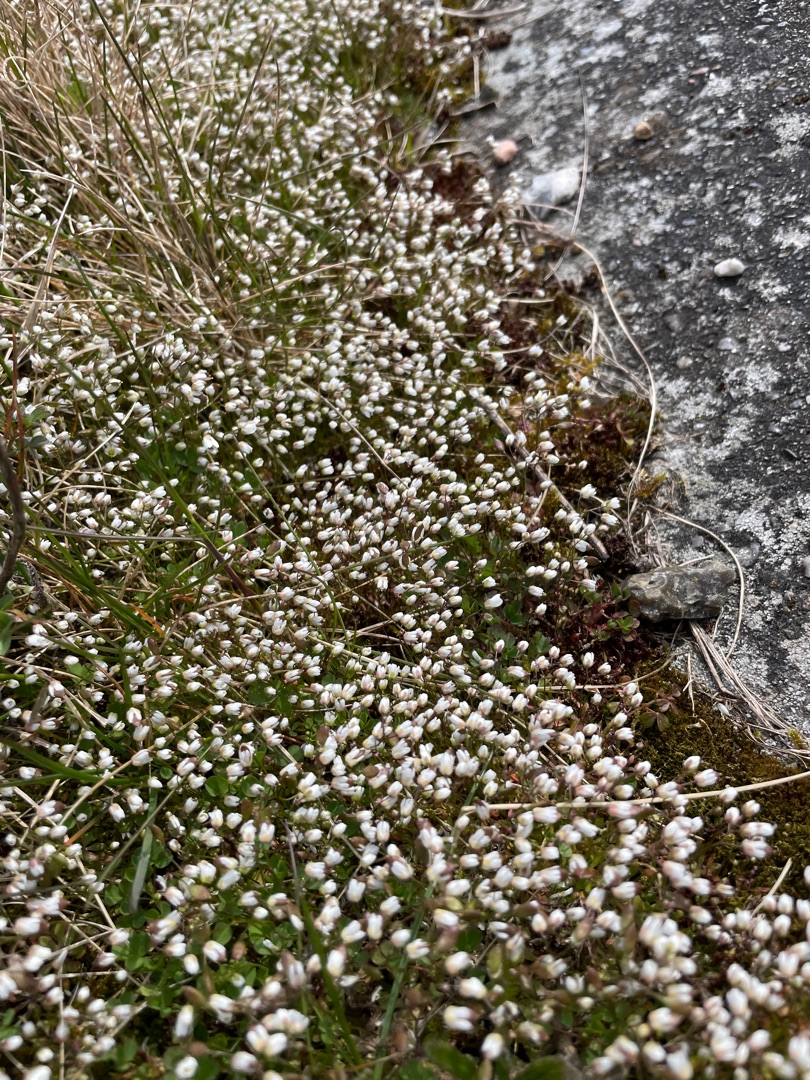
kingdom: Plantae
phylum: Tracheophyta
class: Magnoliopsida
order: Brassicales
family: Brassicaceae
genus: Draba
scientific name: Draba verna
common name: Vår-gæslingeblomst
